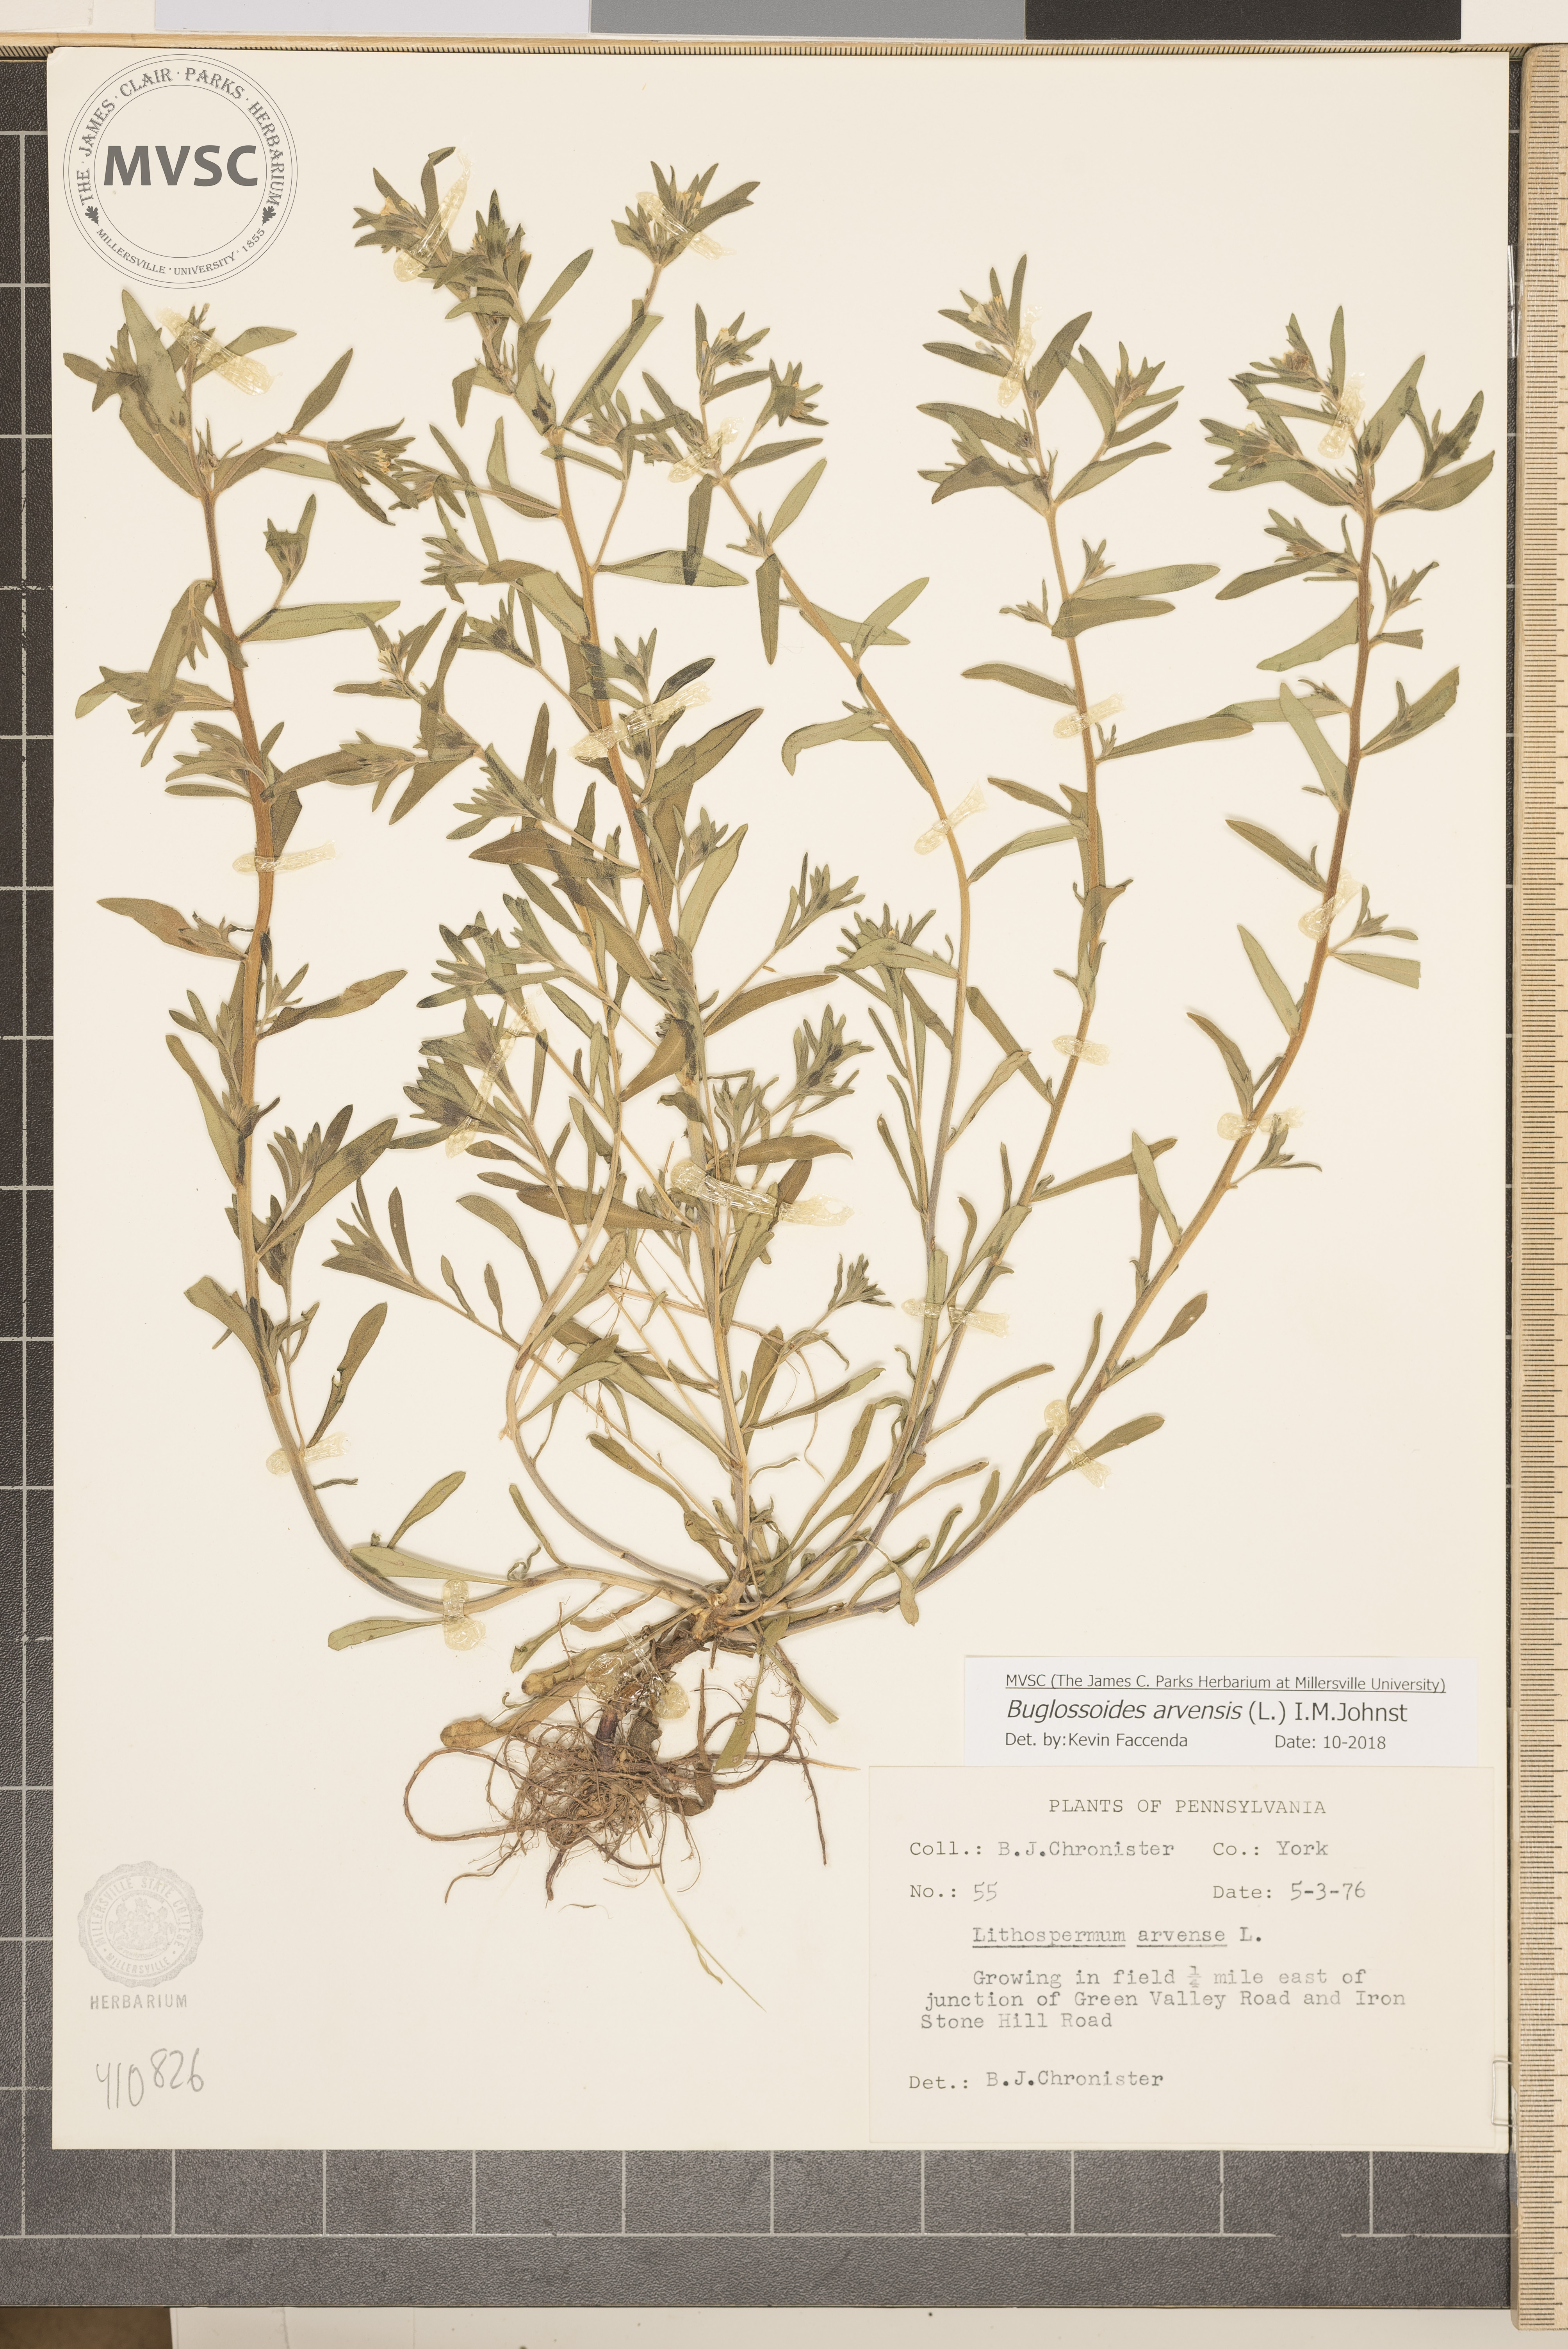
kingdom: Plantae
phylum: Tracheophyta
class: Magnoliopsida
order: Boraginales
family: Boraginaceae
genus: Buglossoides
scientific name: Buglossoides arvensis
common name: Corn gromwell
